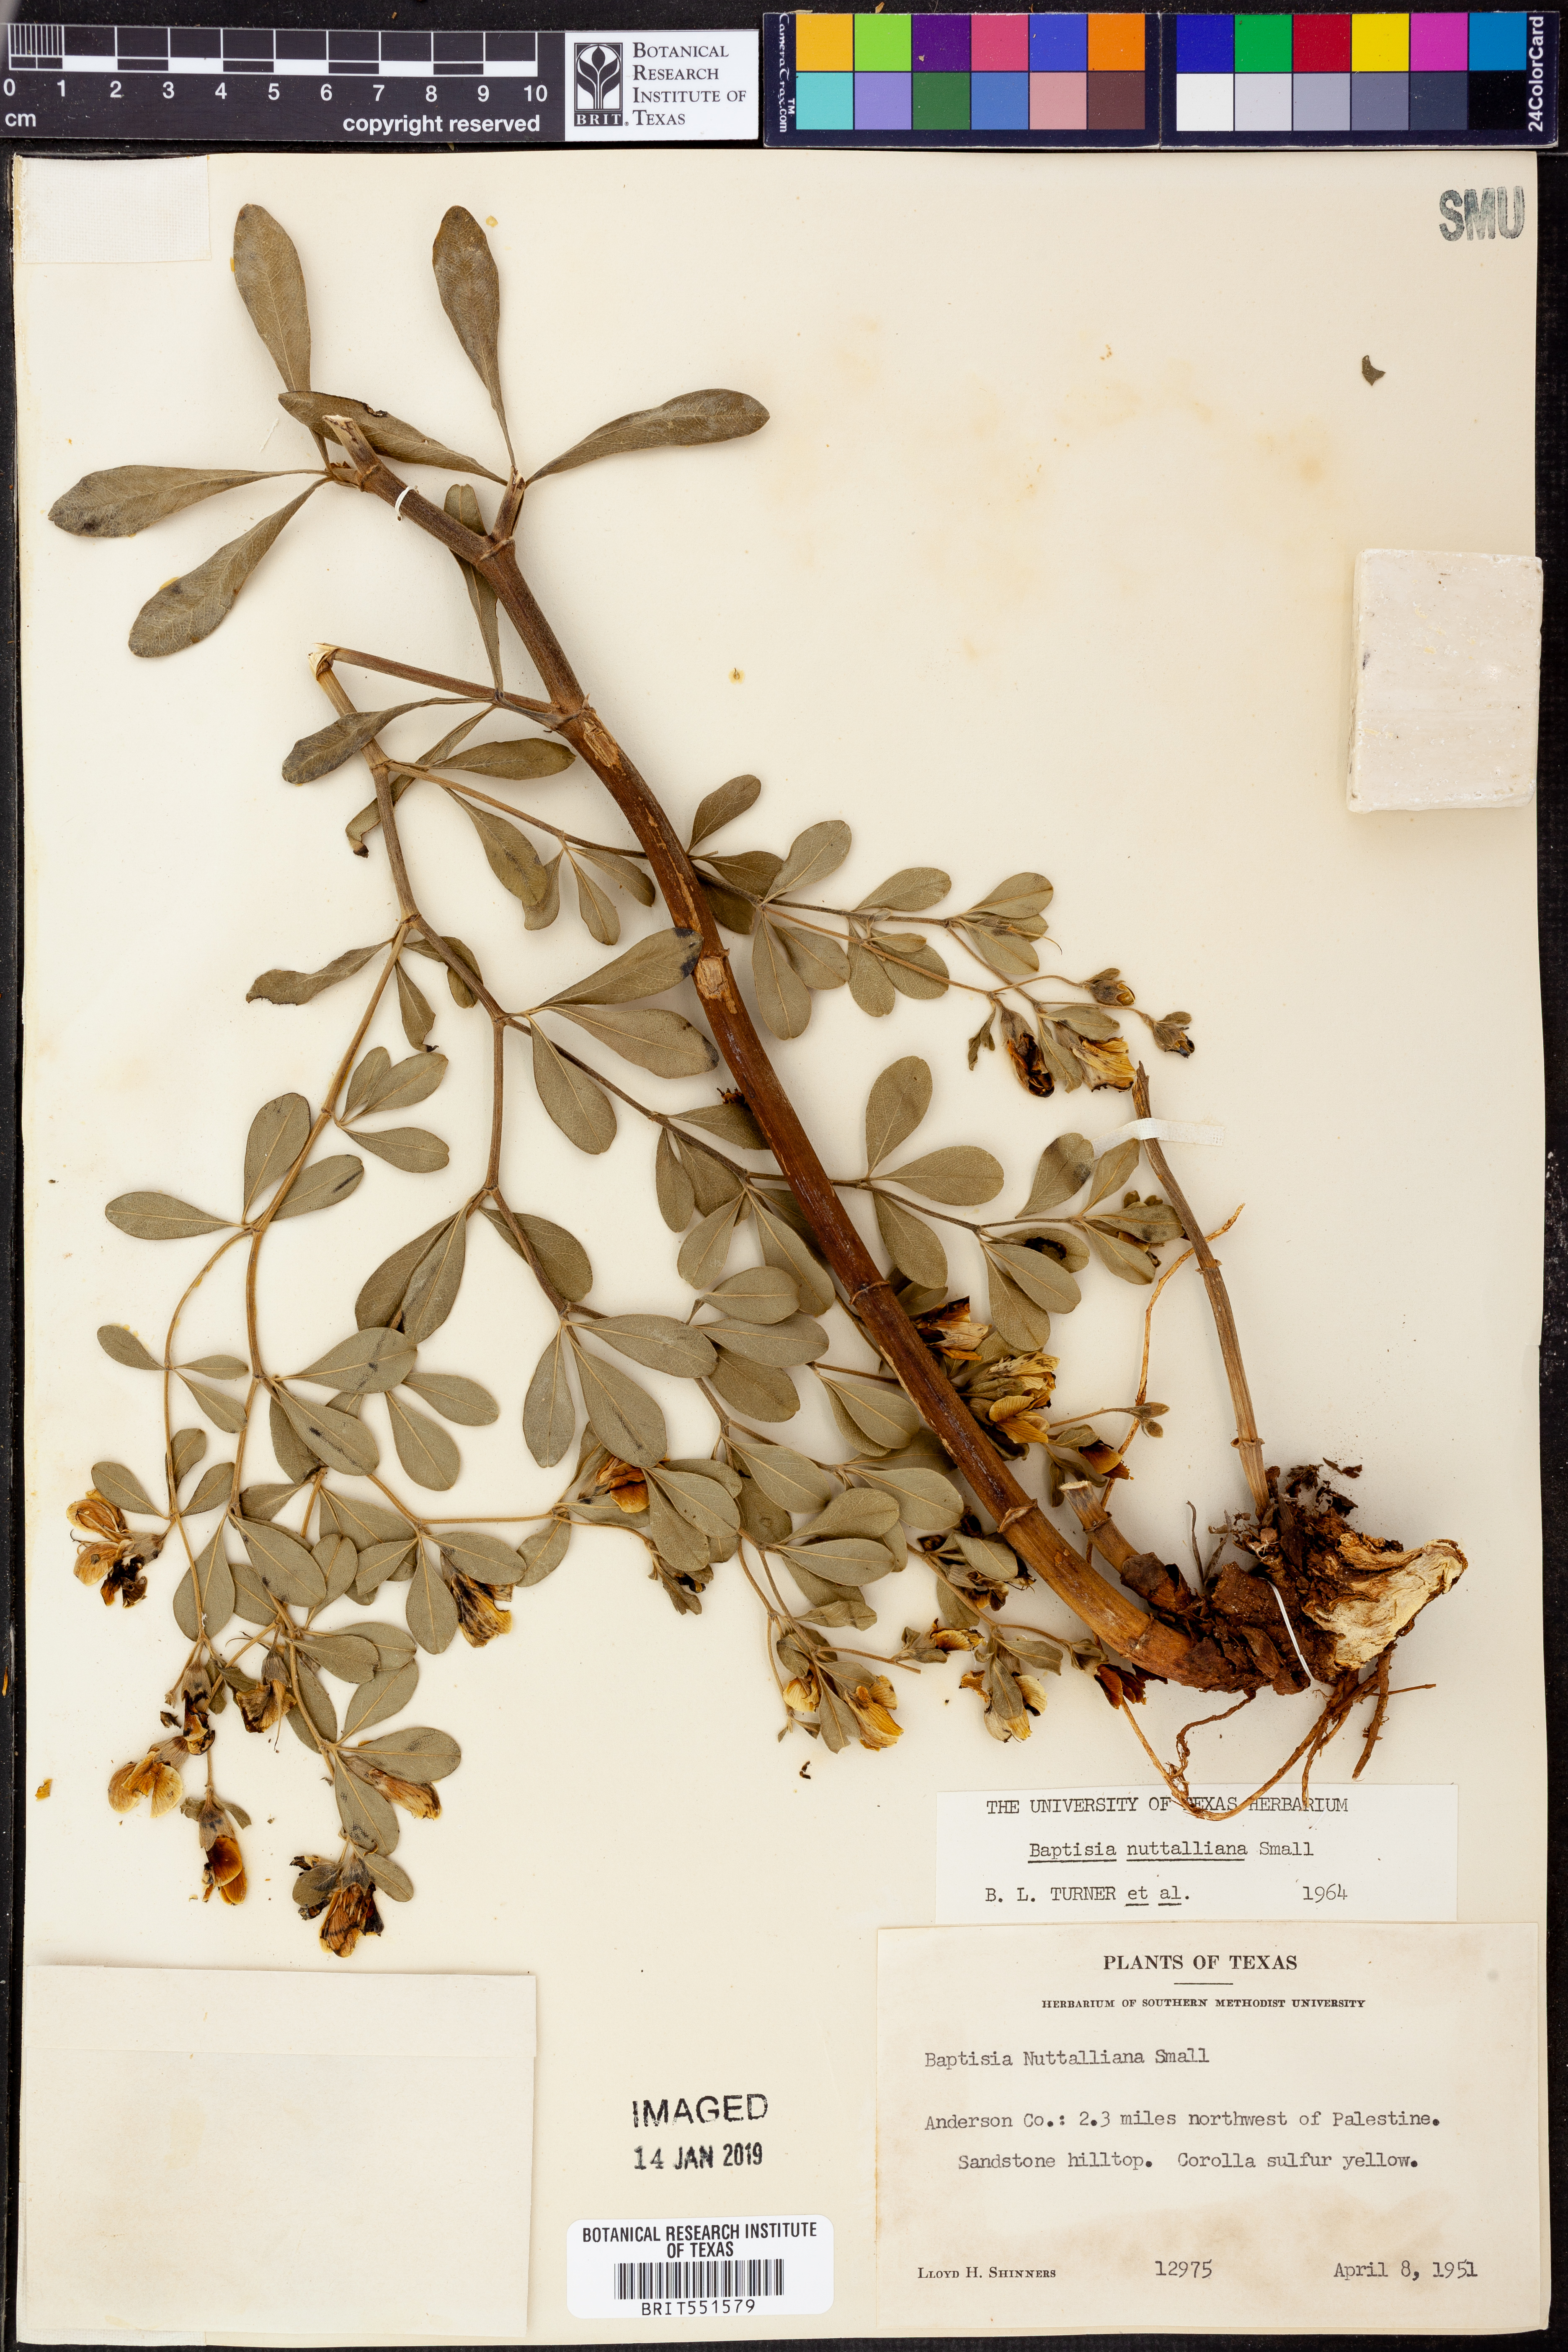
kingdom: Plantae
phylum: Tracheophyta
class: Magnoliopsida
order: Fabales
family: Fabaceae
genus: Baptisia
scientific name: Baptisia nuttalliana
